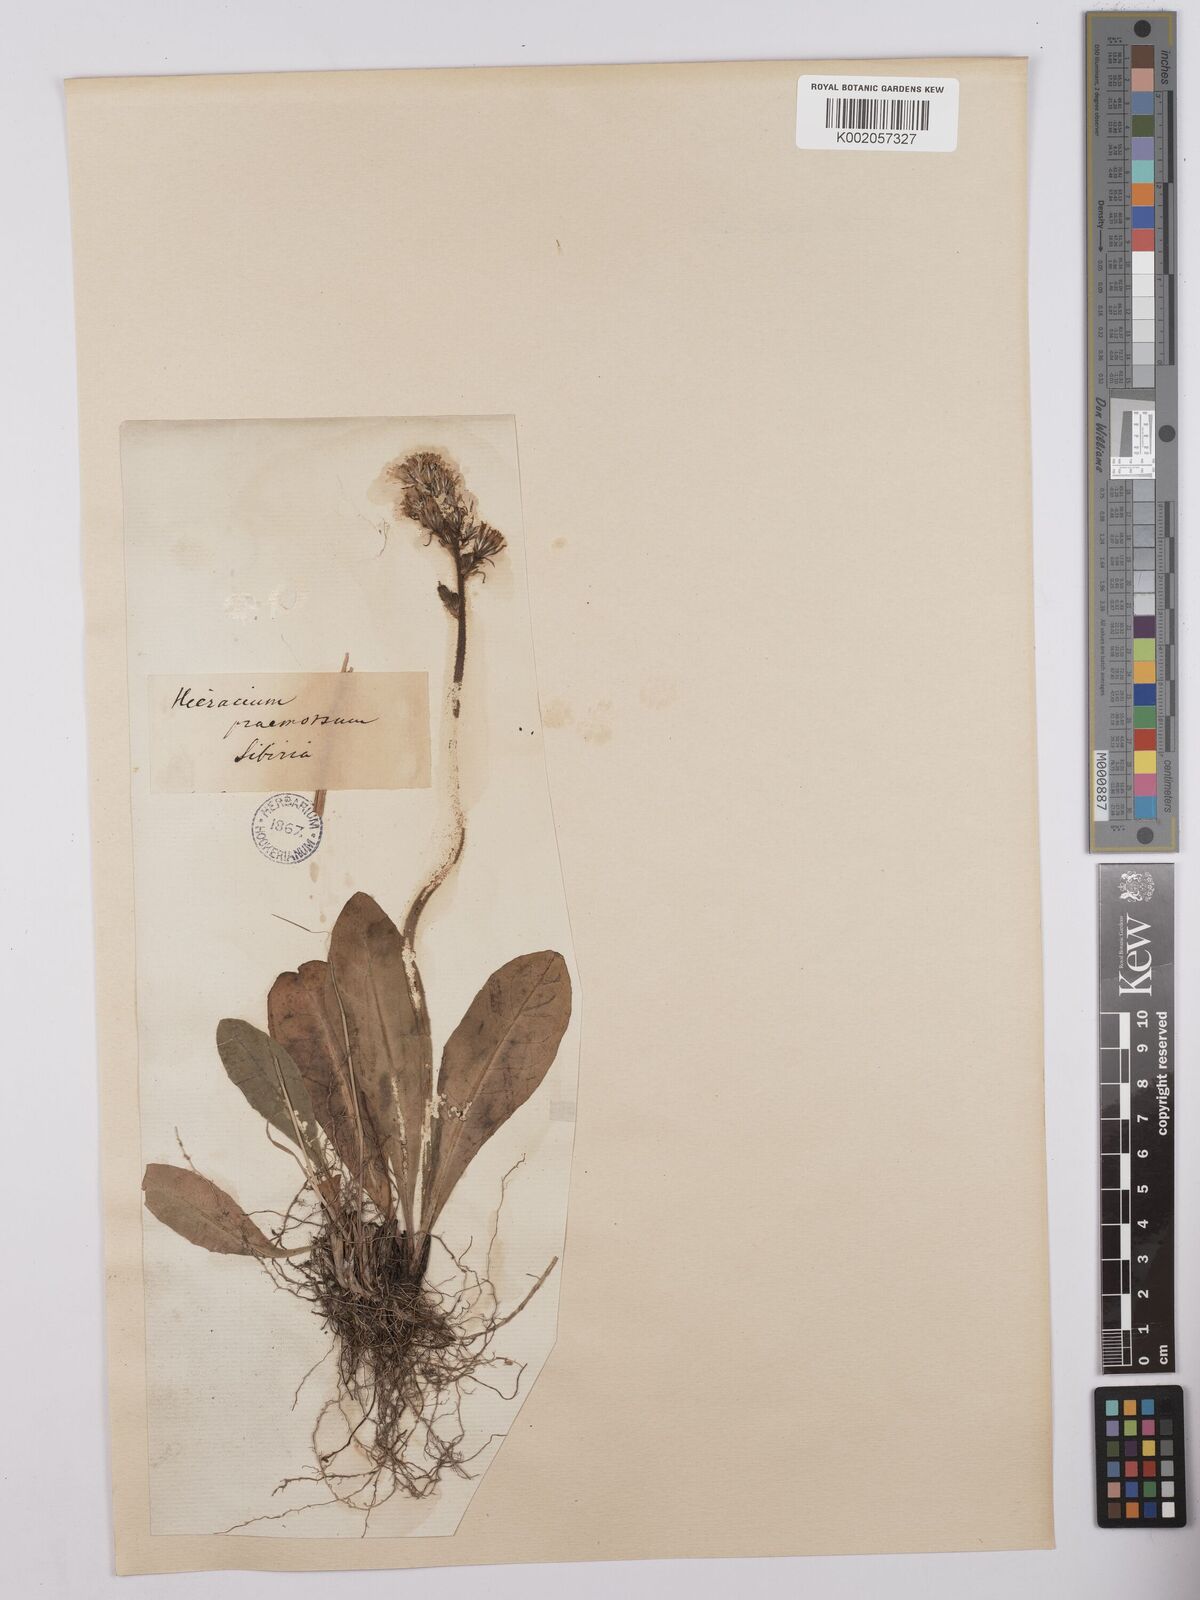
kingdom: Plantae
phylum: Tracheophyta
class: Magnoliopsida
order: Asterales
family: Asteraceae
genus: Crepis
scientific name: Crepis praemorsa
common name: Leafless hawk's-beard
